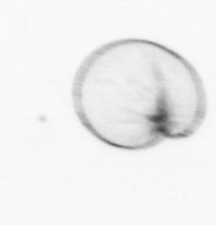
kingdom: Chromista
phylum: Myzozoa
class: Dinophyceae
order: Noctilucales
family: Noctilucaceae
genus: Noctiluca
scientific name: Noctiluca scintillans
